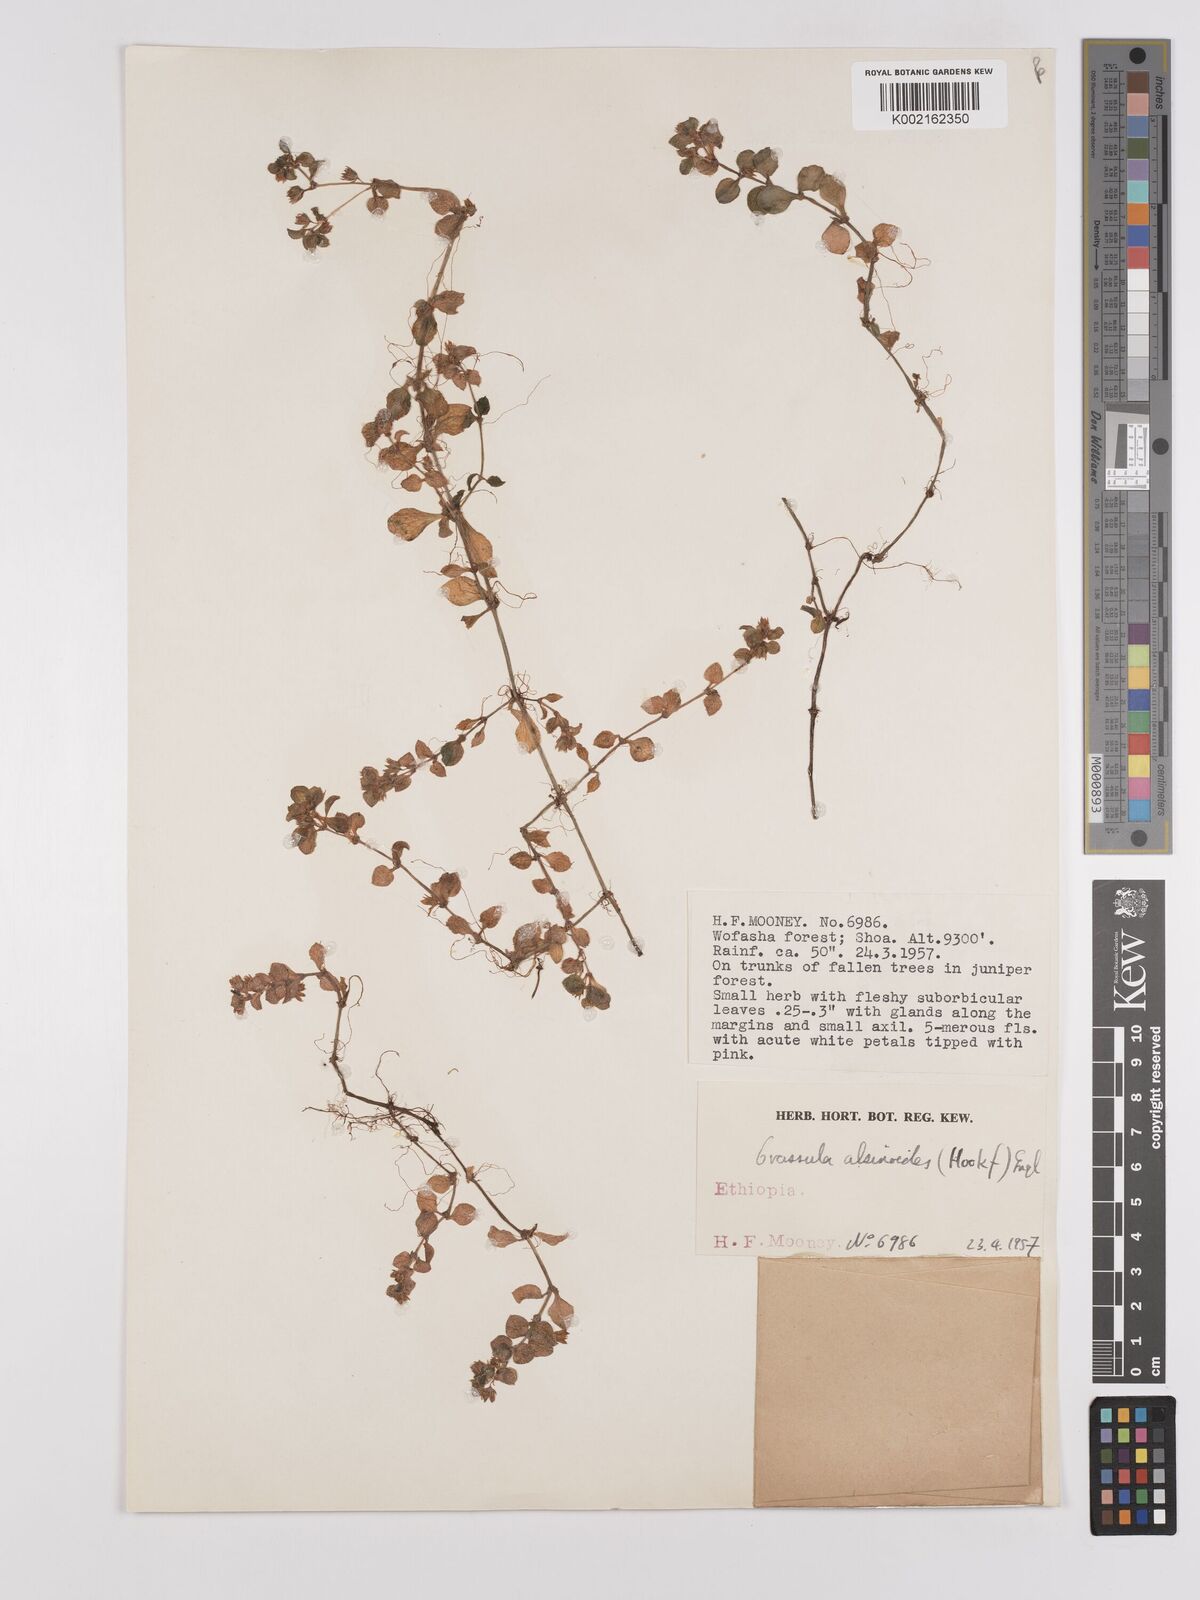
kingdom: Plantae
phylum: Tracheophyta
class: Magnoliopsida
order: Saxifragales
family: Crassulaceae
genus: Crassula
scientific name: Crassula alsinoides
